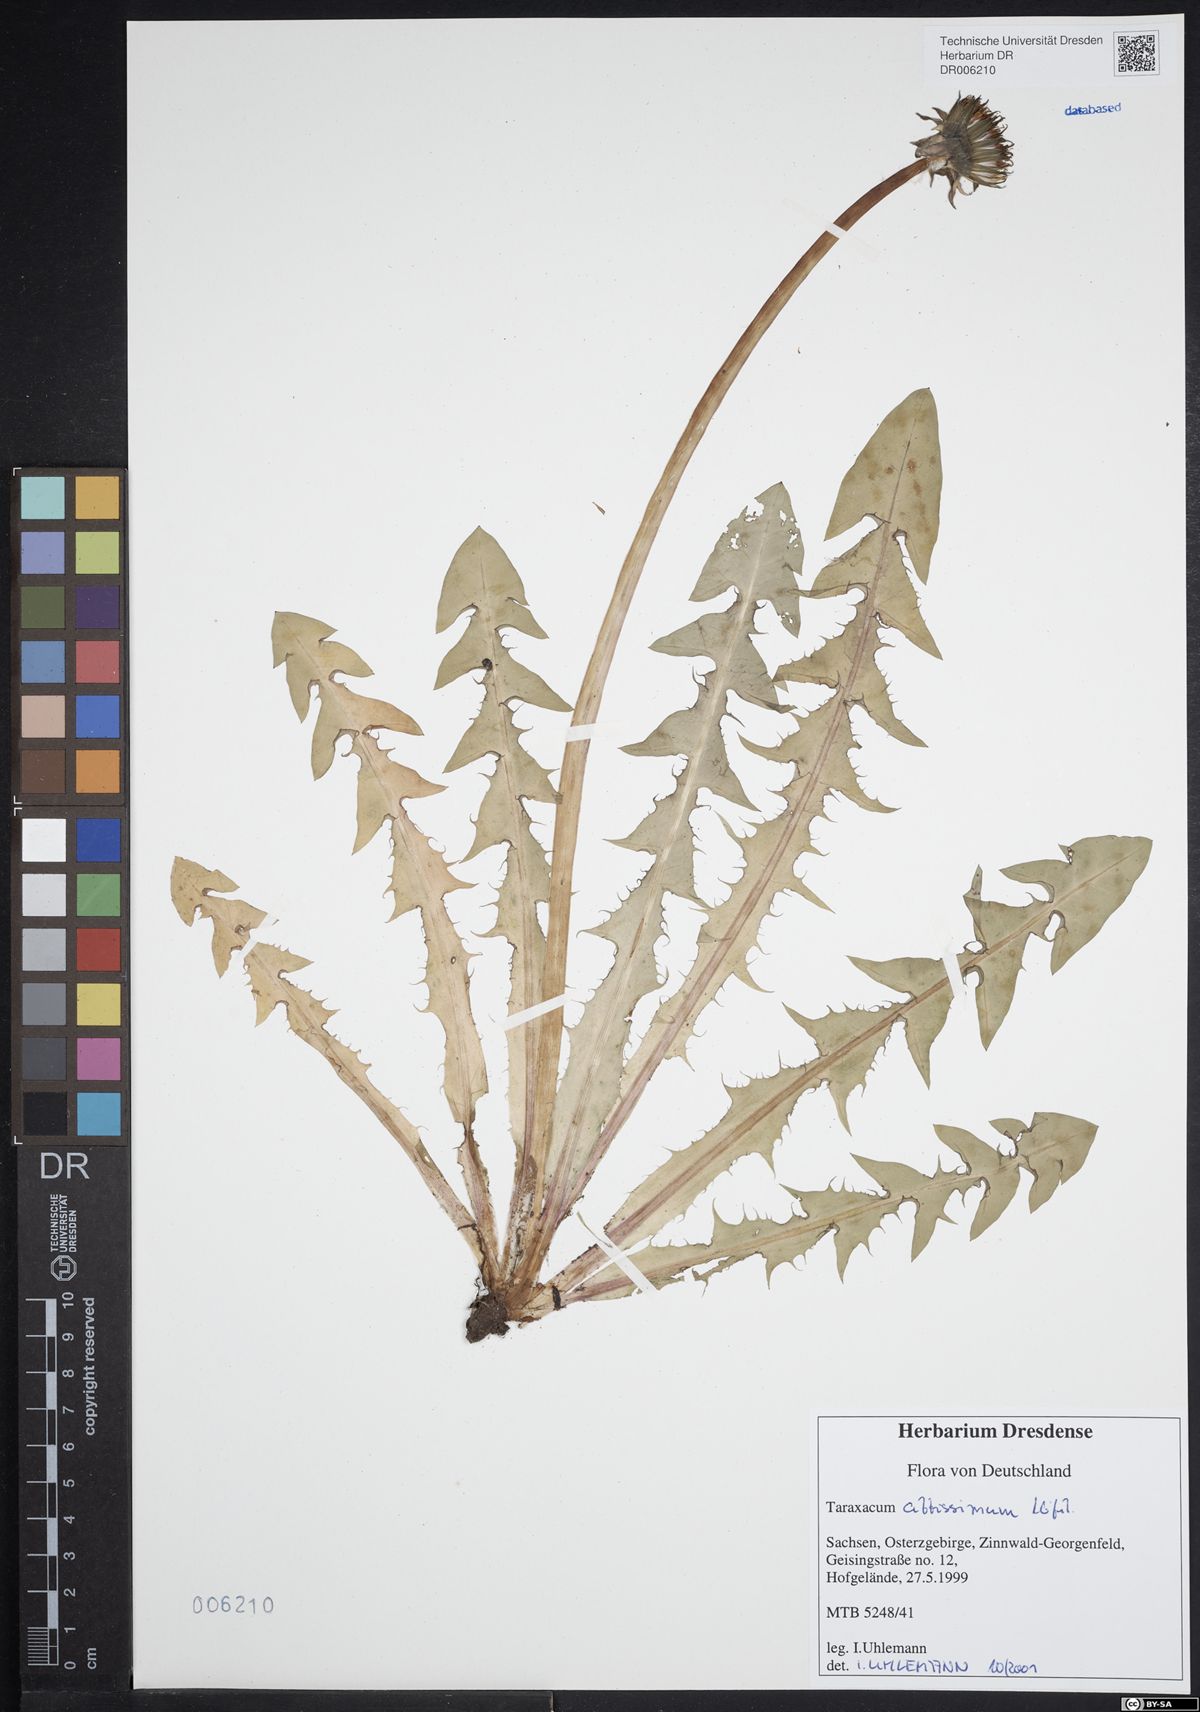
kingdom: Plantae
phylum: Tracheophyta
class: Magnoliopsida
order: Asterales
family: Asteraceae
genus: Taraxacum
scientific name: Taraxacum altissimum
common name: Tall dandelion
